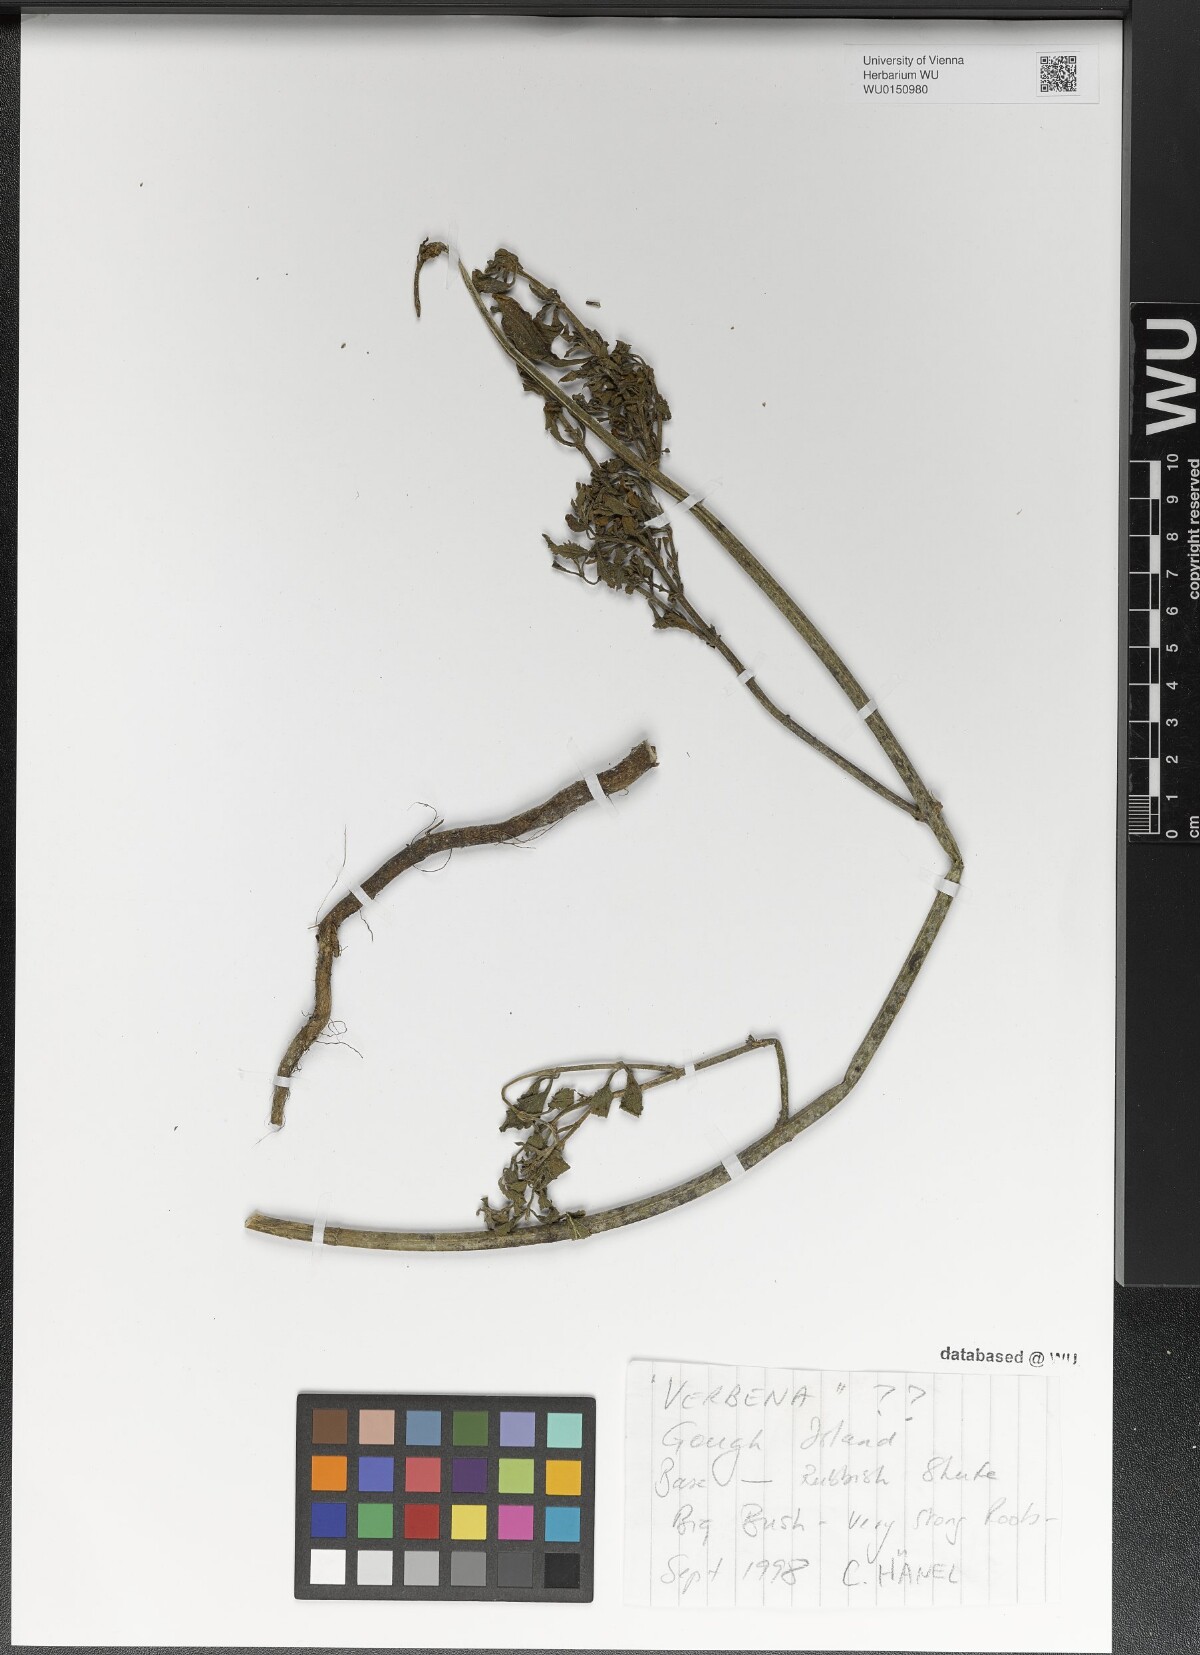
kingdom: Plantae
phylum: Tracheophyta
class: Magnoliopsida
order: Lamiales
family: Verbenaceae
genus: Verbena
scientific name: Verbena
